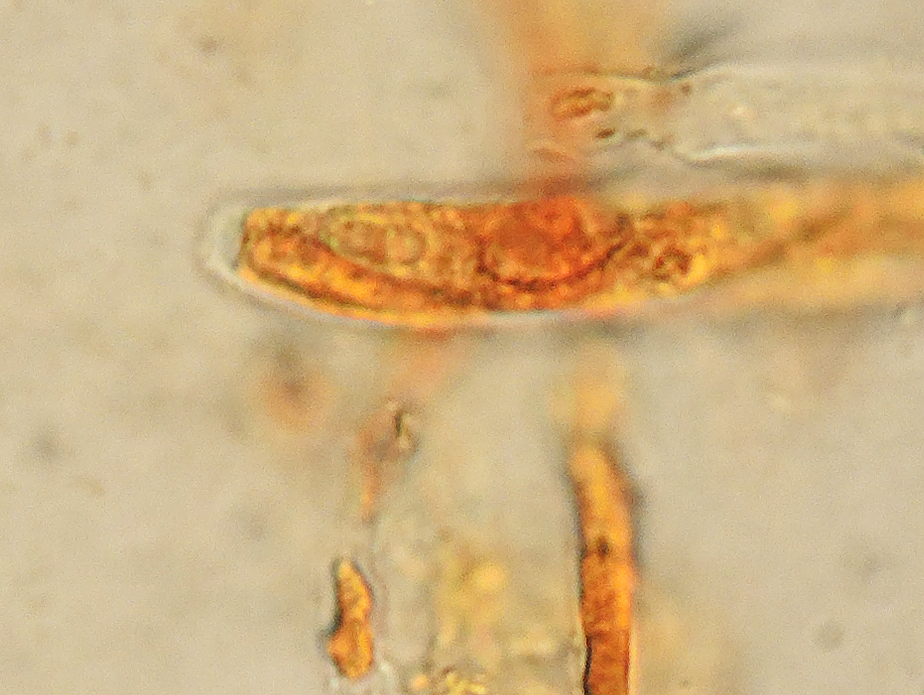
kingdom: Fungi
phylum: Ascomycota
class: Leotiomycetes
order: Helotiales
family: Helotiaceae
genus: Hymenoscyphus
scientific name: Hymenoscyphus
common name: stilkskive
